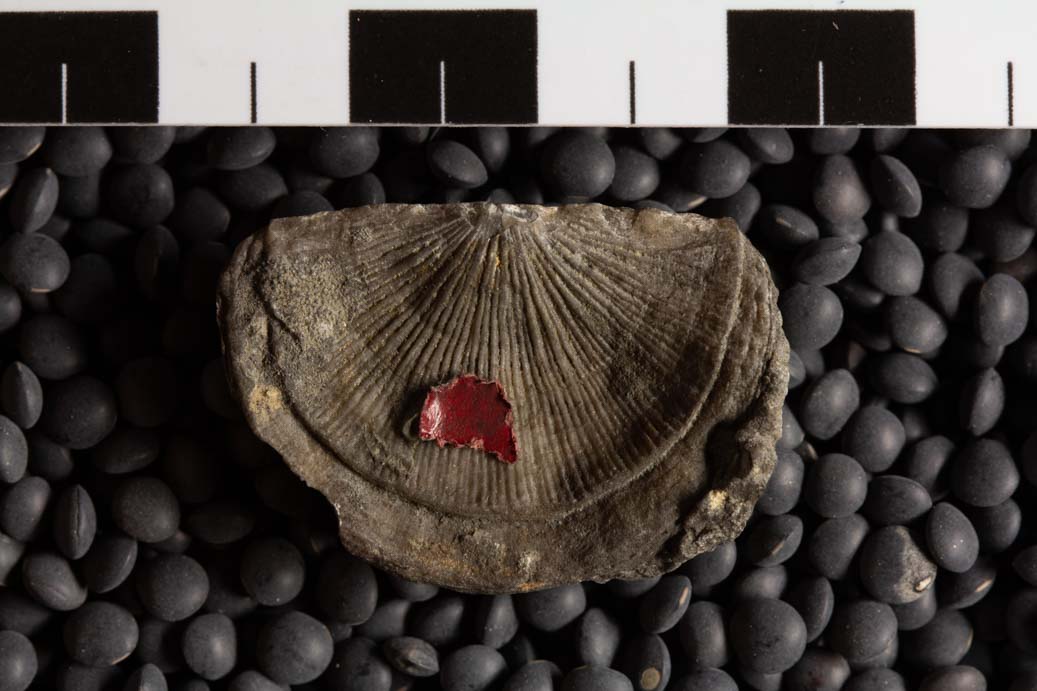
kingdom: Animalia
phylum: Brachiopoda
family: Streptorhynchidae
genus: Streptorhynchus
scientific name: Streptorhynchus
